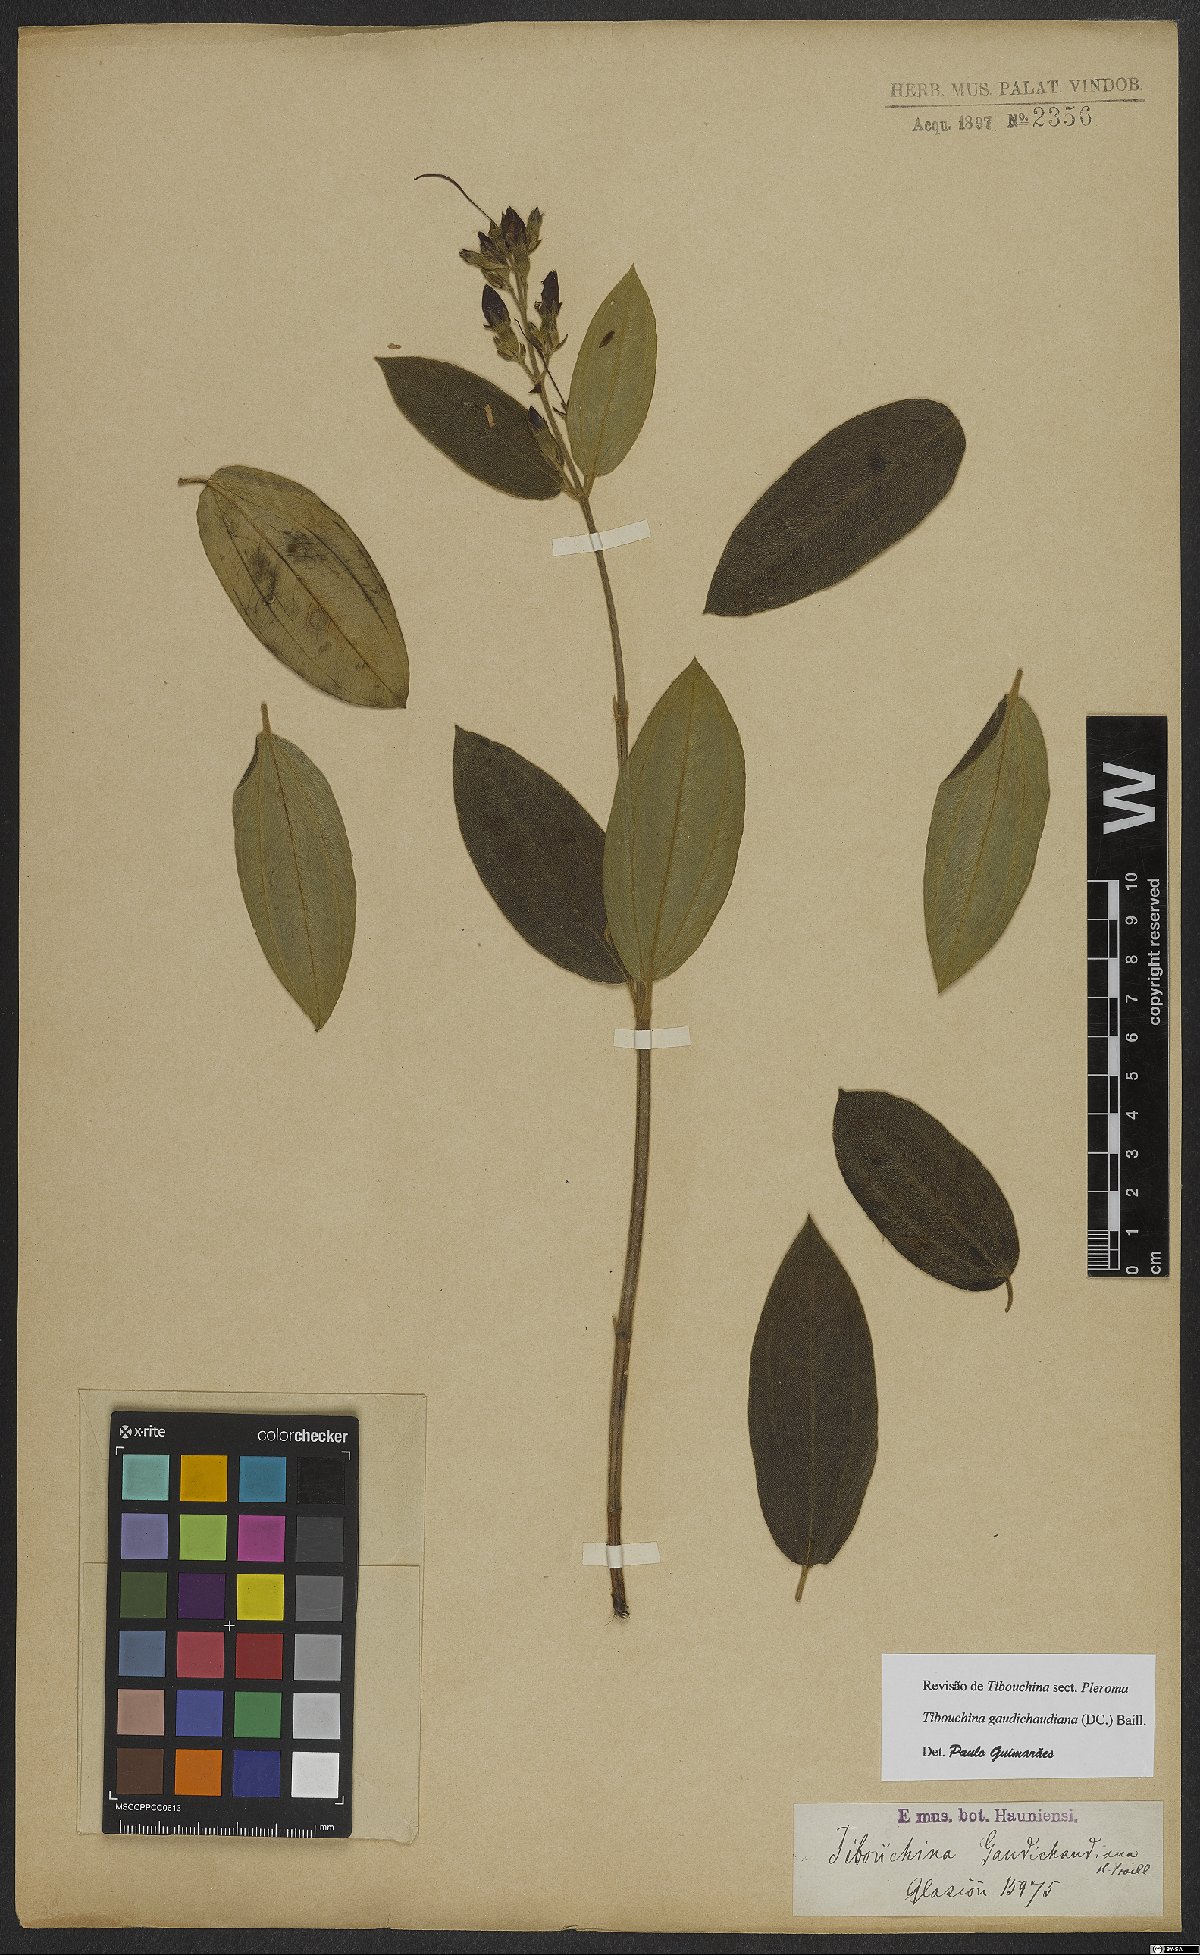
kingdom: Plantae
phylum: Tracheophyta
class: Magnoliopsida
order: Myrtales
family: Melastomataceae
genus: Pleroma
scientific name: Pleroma gaudichaudianum
